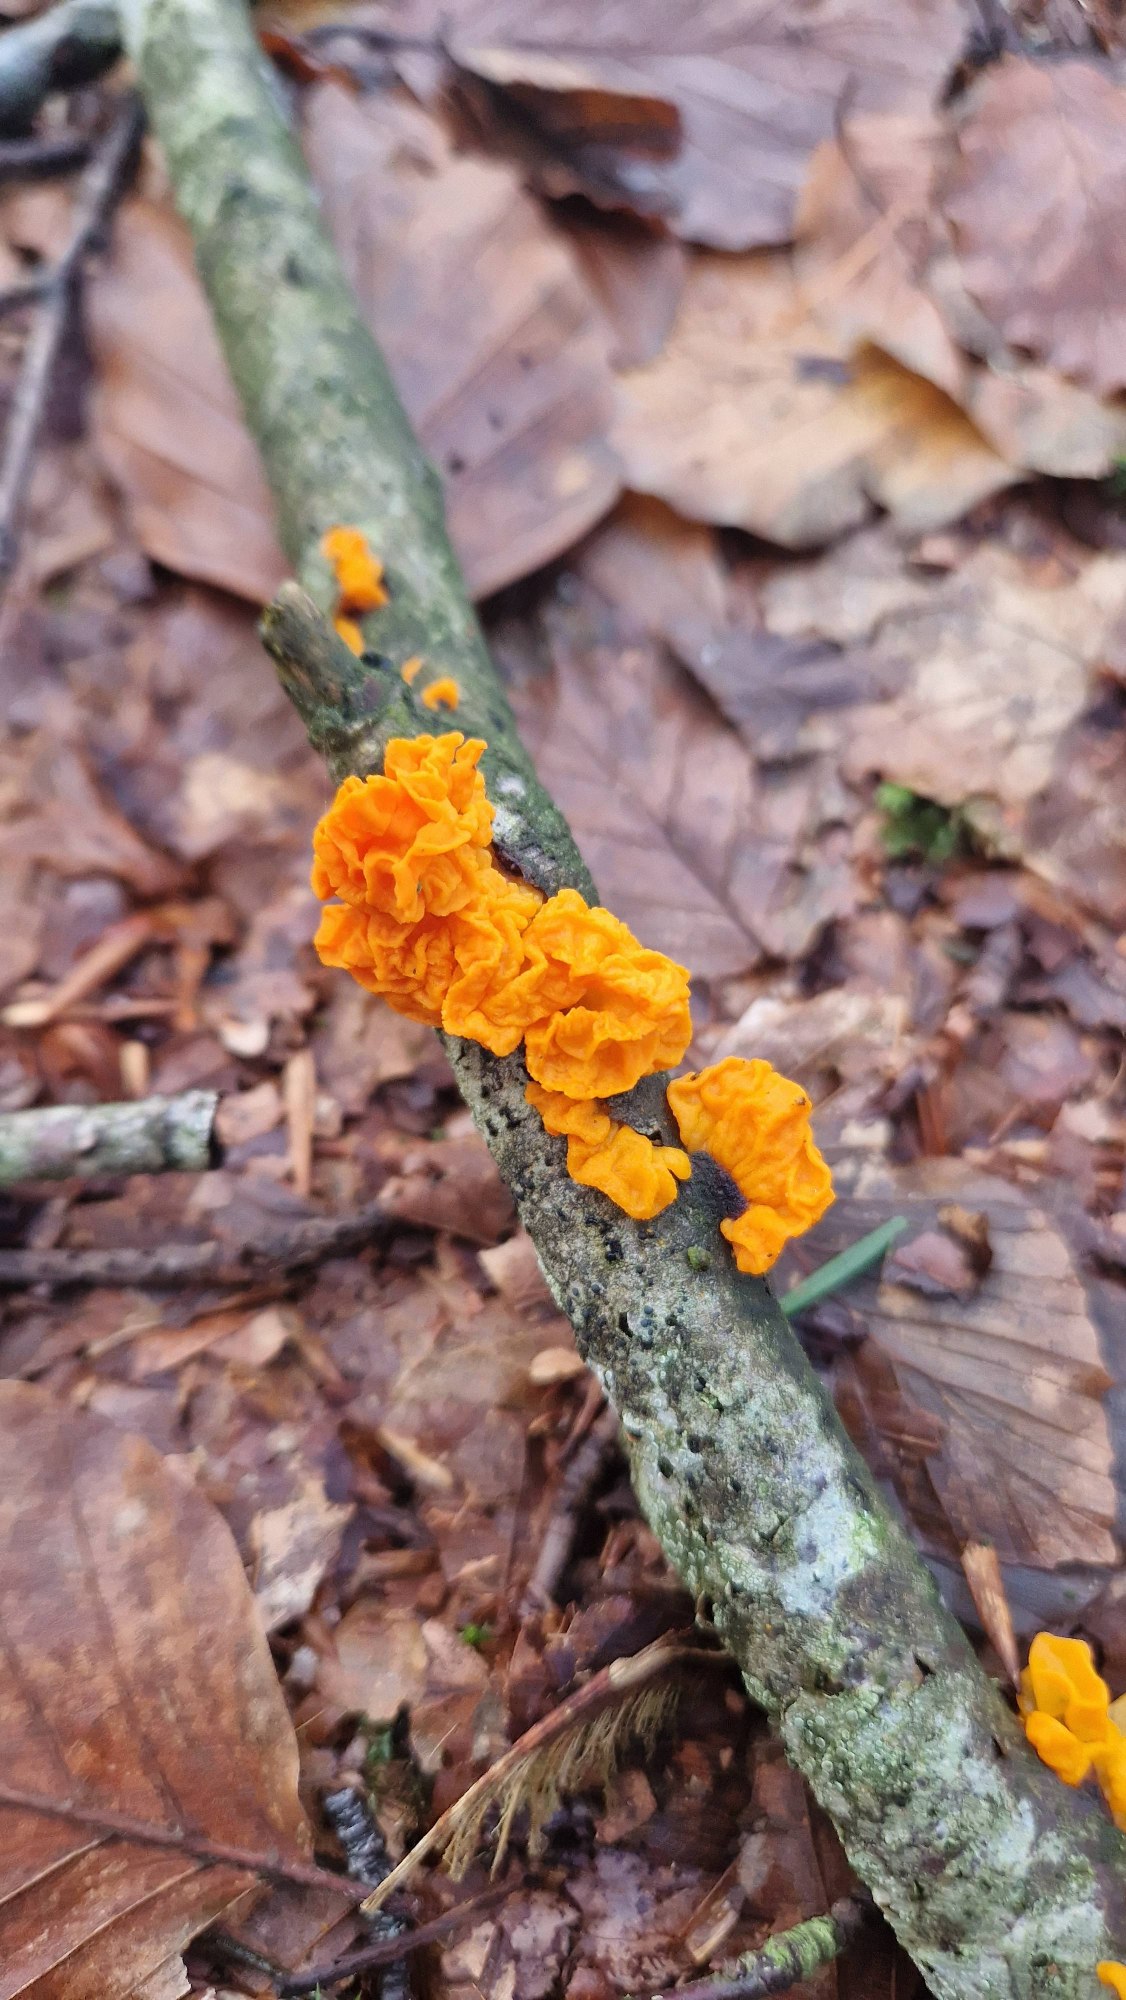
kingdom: Fungi
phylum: Basidiomycota
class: Tremellomycetes
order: Tremellales
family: Tremellaceae
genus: Tremella
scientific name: Tremella mesenterica
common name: Gul bævresvamp
